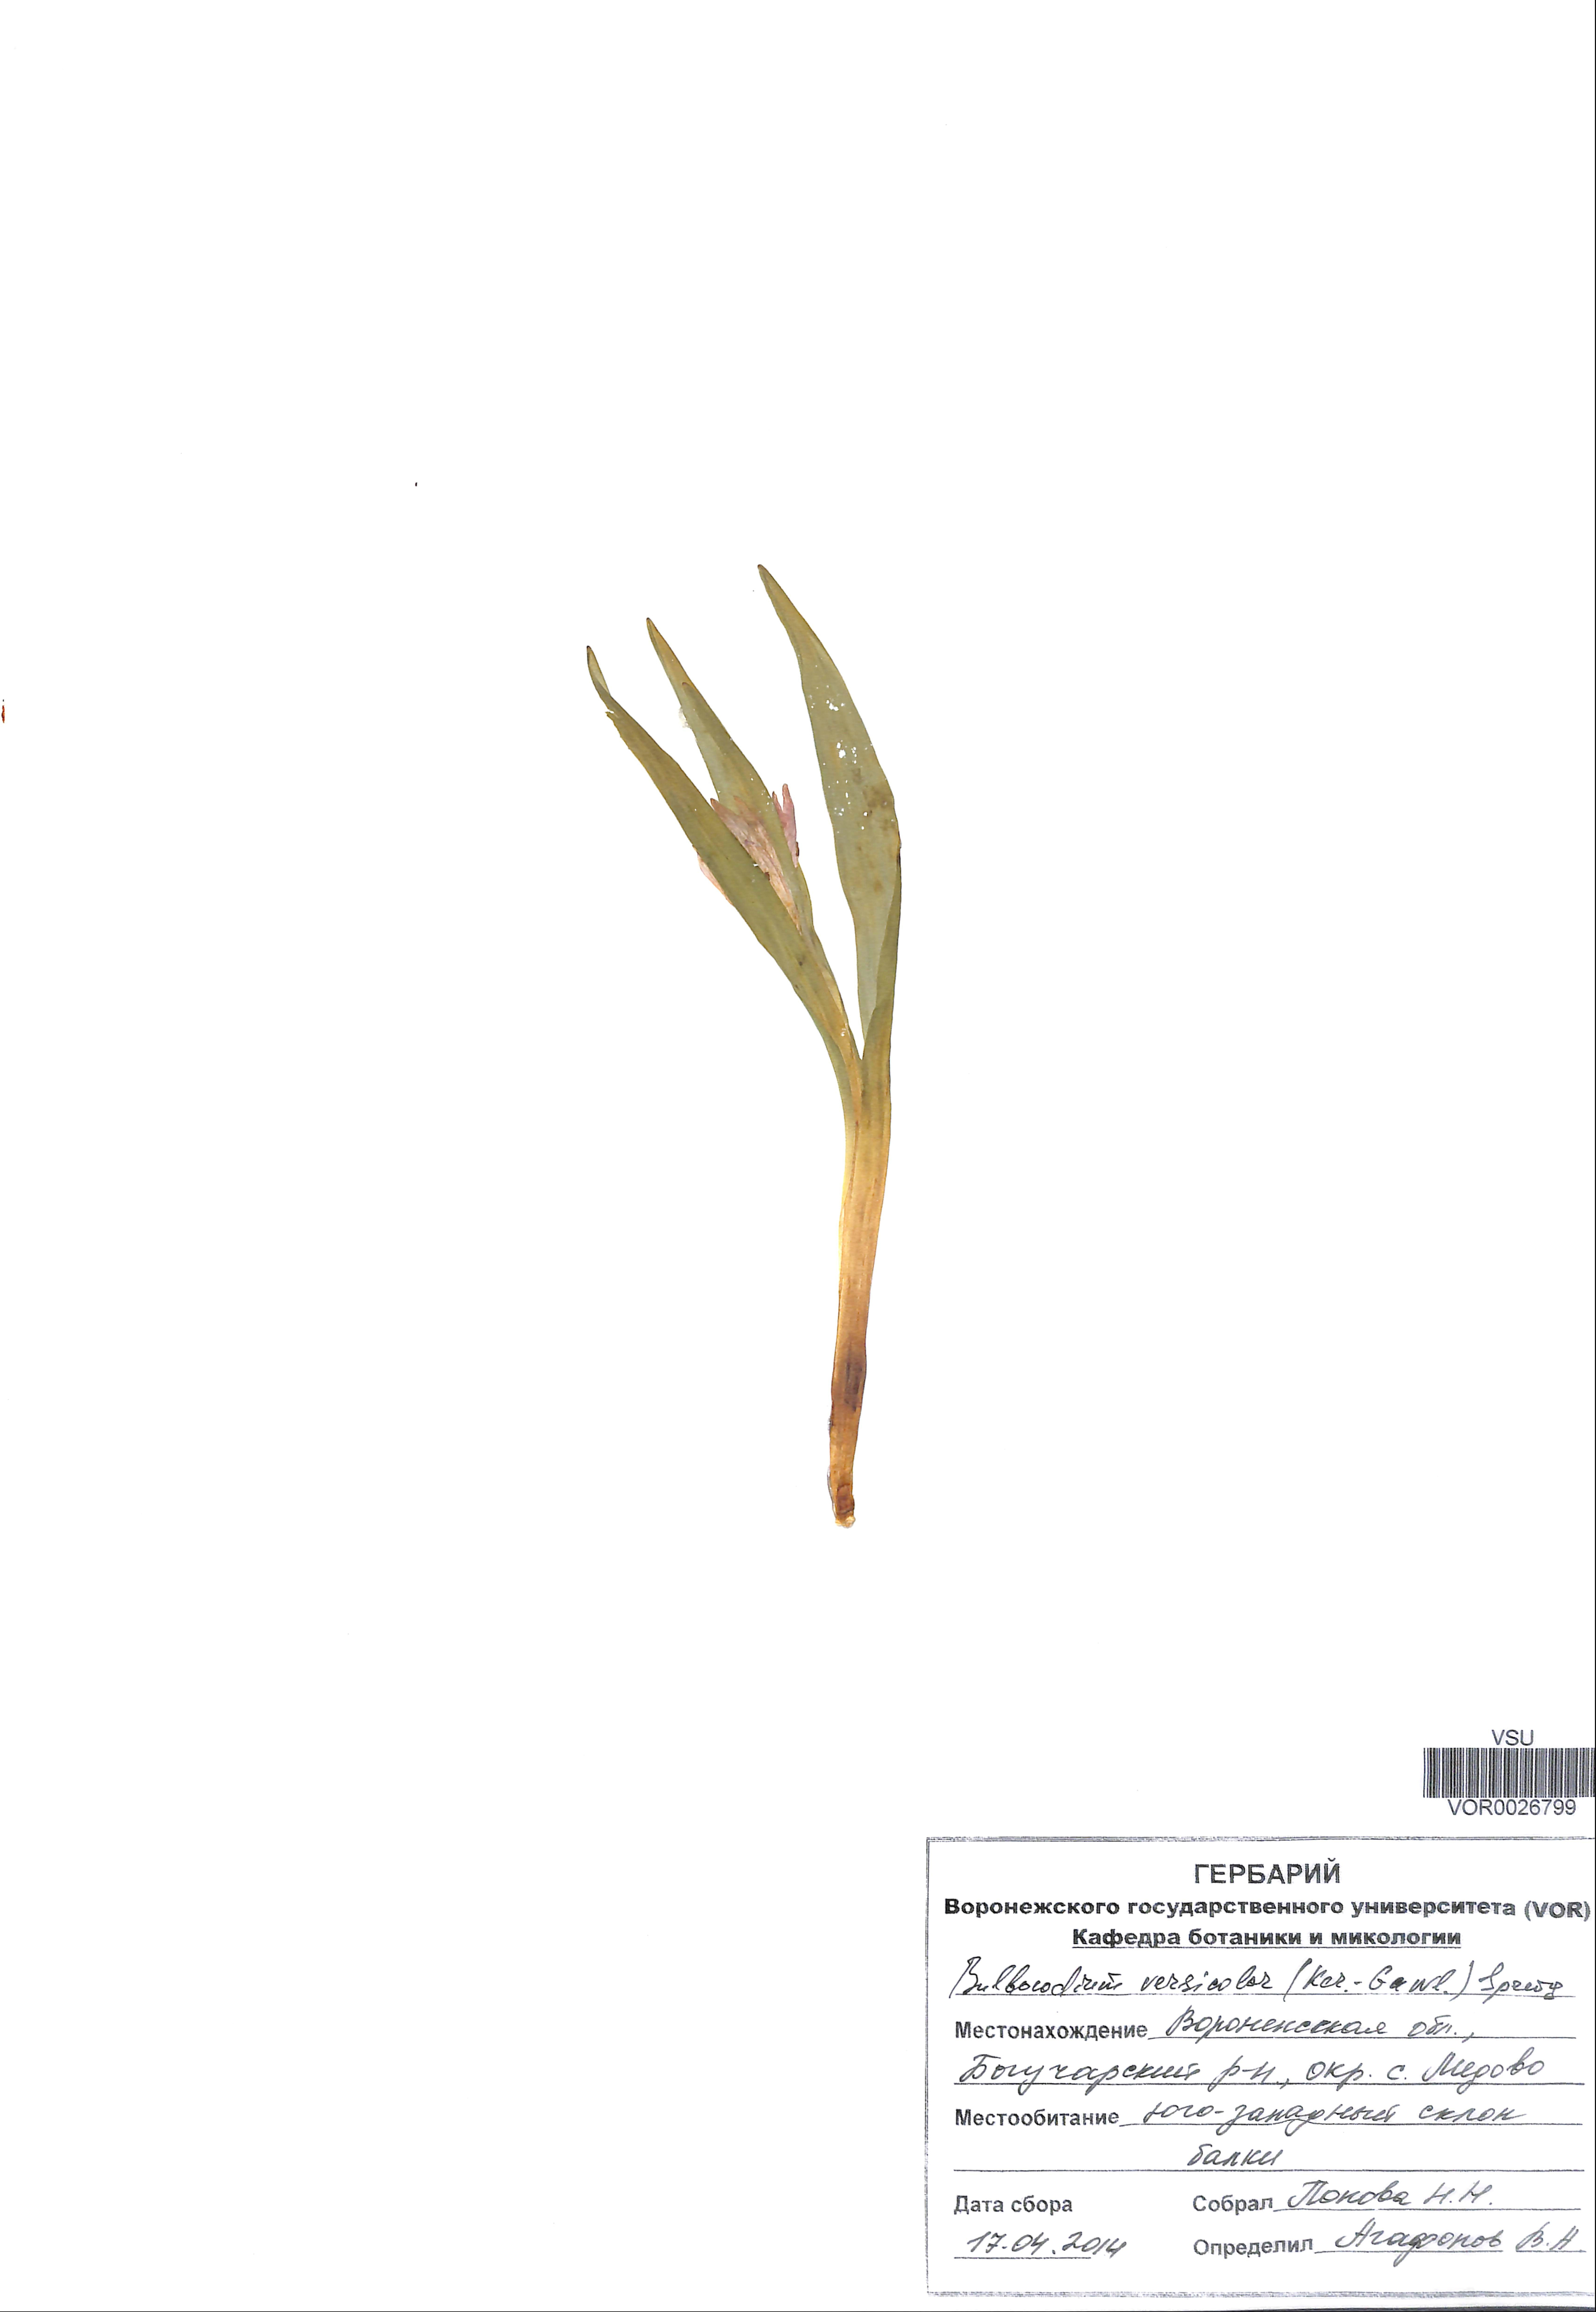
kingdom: Plantae
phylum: Tracheophyta
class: Liliopsida
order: Liliales
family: Colchicaceae
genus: Colchicum
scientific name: Colchicum bulbocodium
